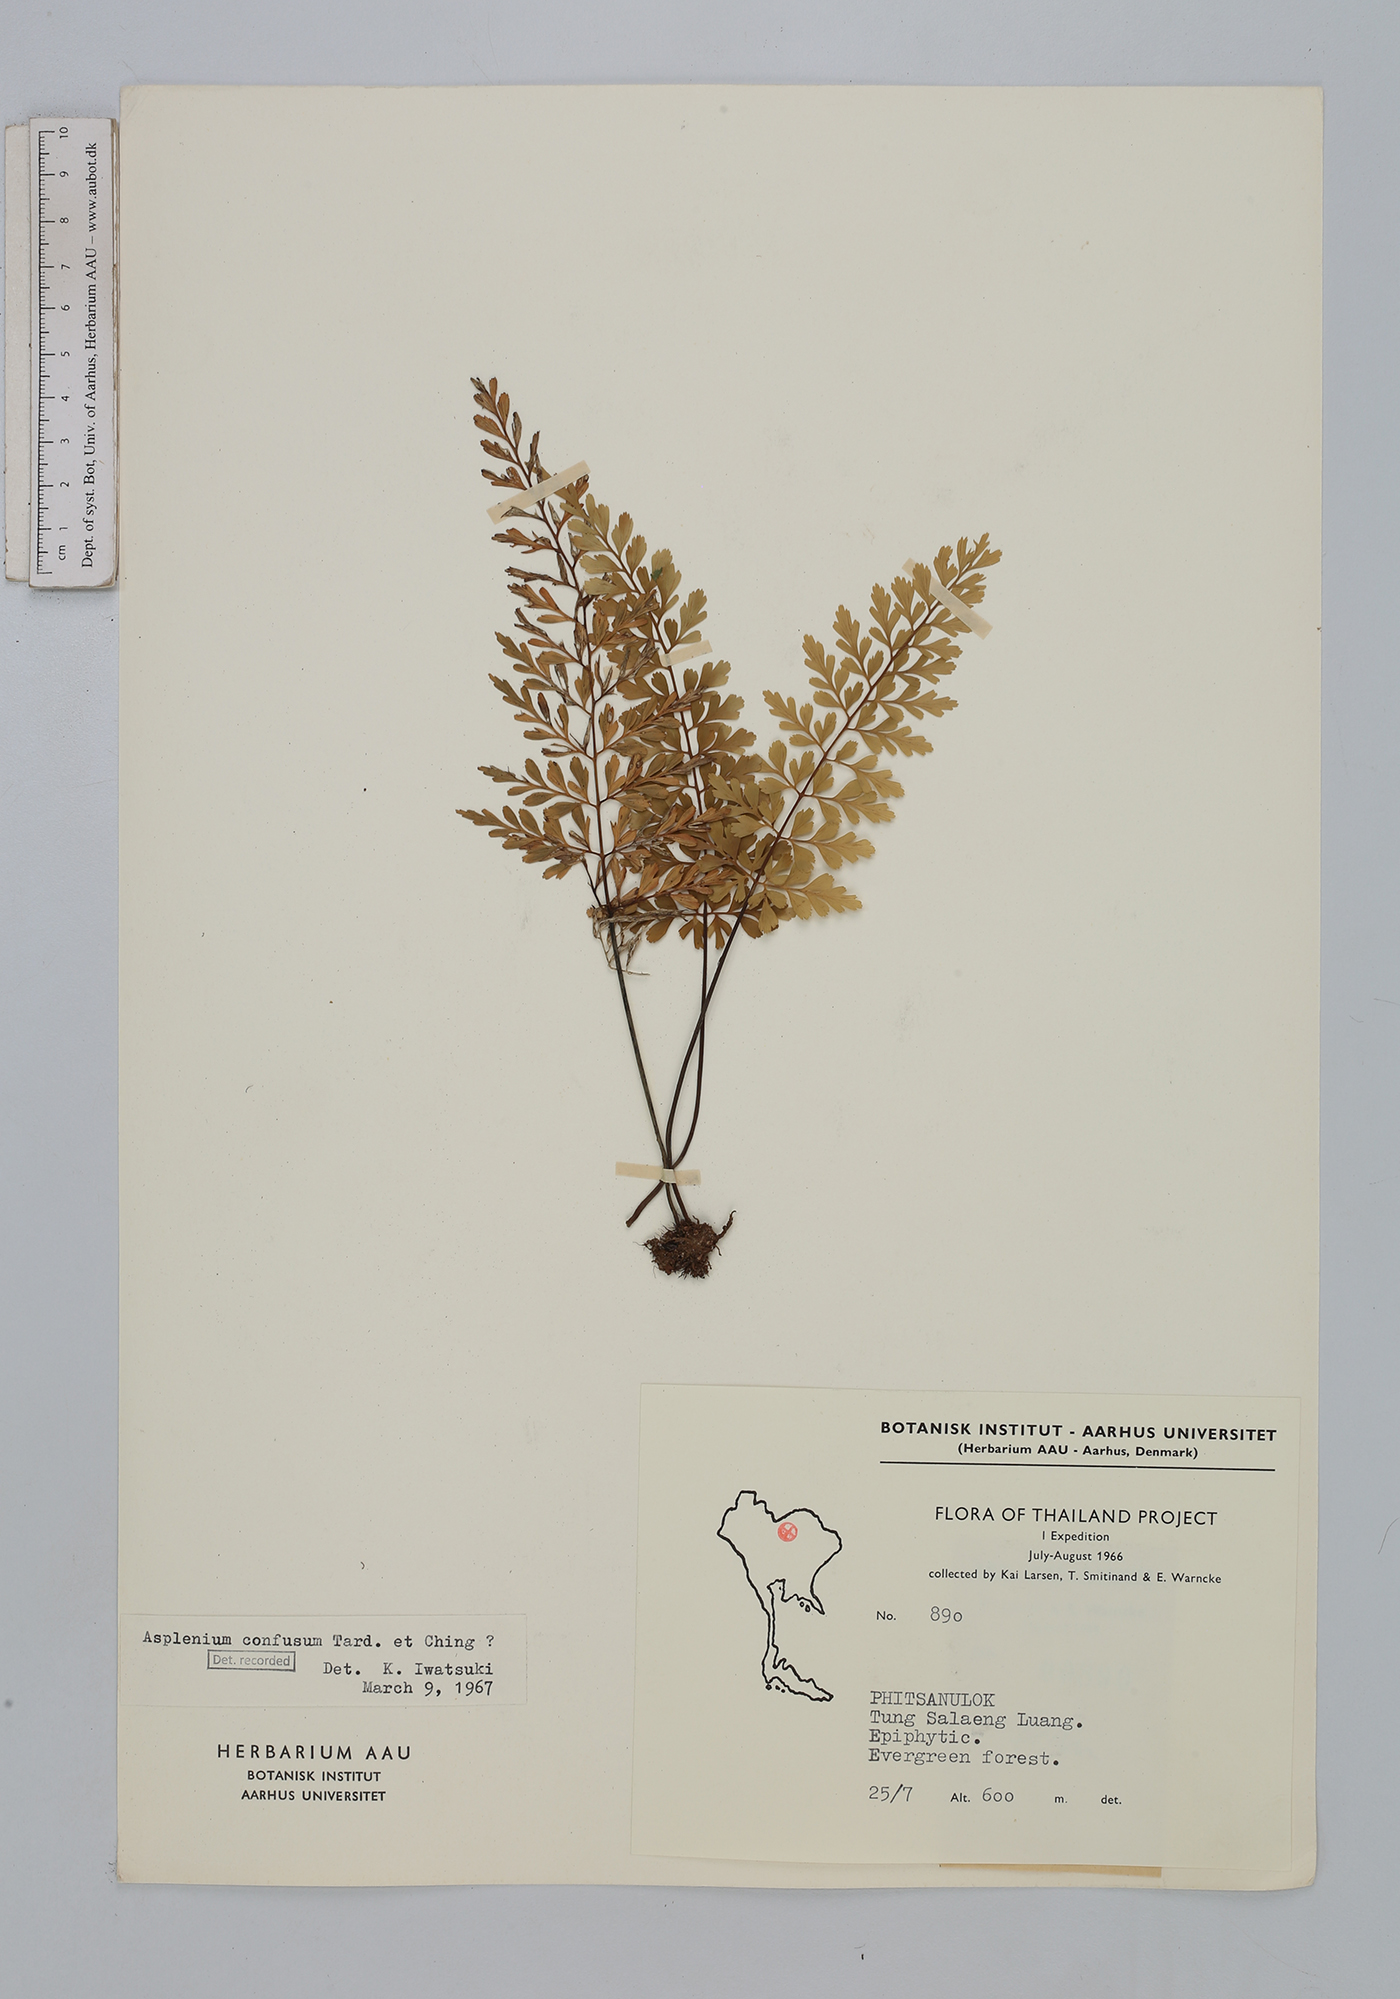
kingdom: Plantae
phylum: Tracheophyta
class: Polypodiopsida
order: Polypodiales
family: Aspleniaceae
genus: Asplenium
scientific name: Asplenium cristatum
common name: Parsley spleenwort
